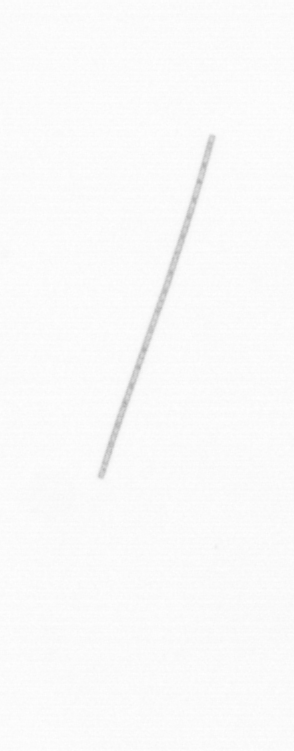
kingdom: Chromista
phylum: Ochrophyta
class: Bacillariophyceae
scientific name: Bacillariophyceae
